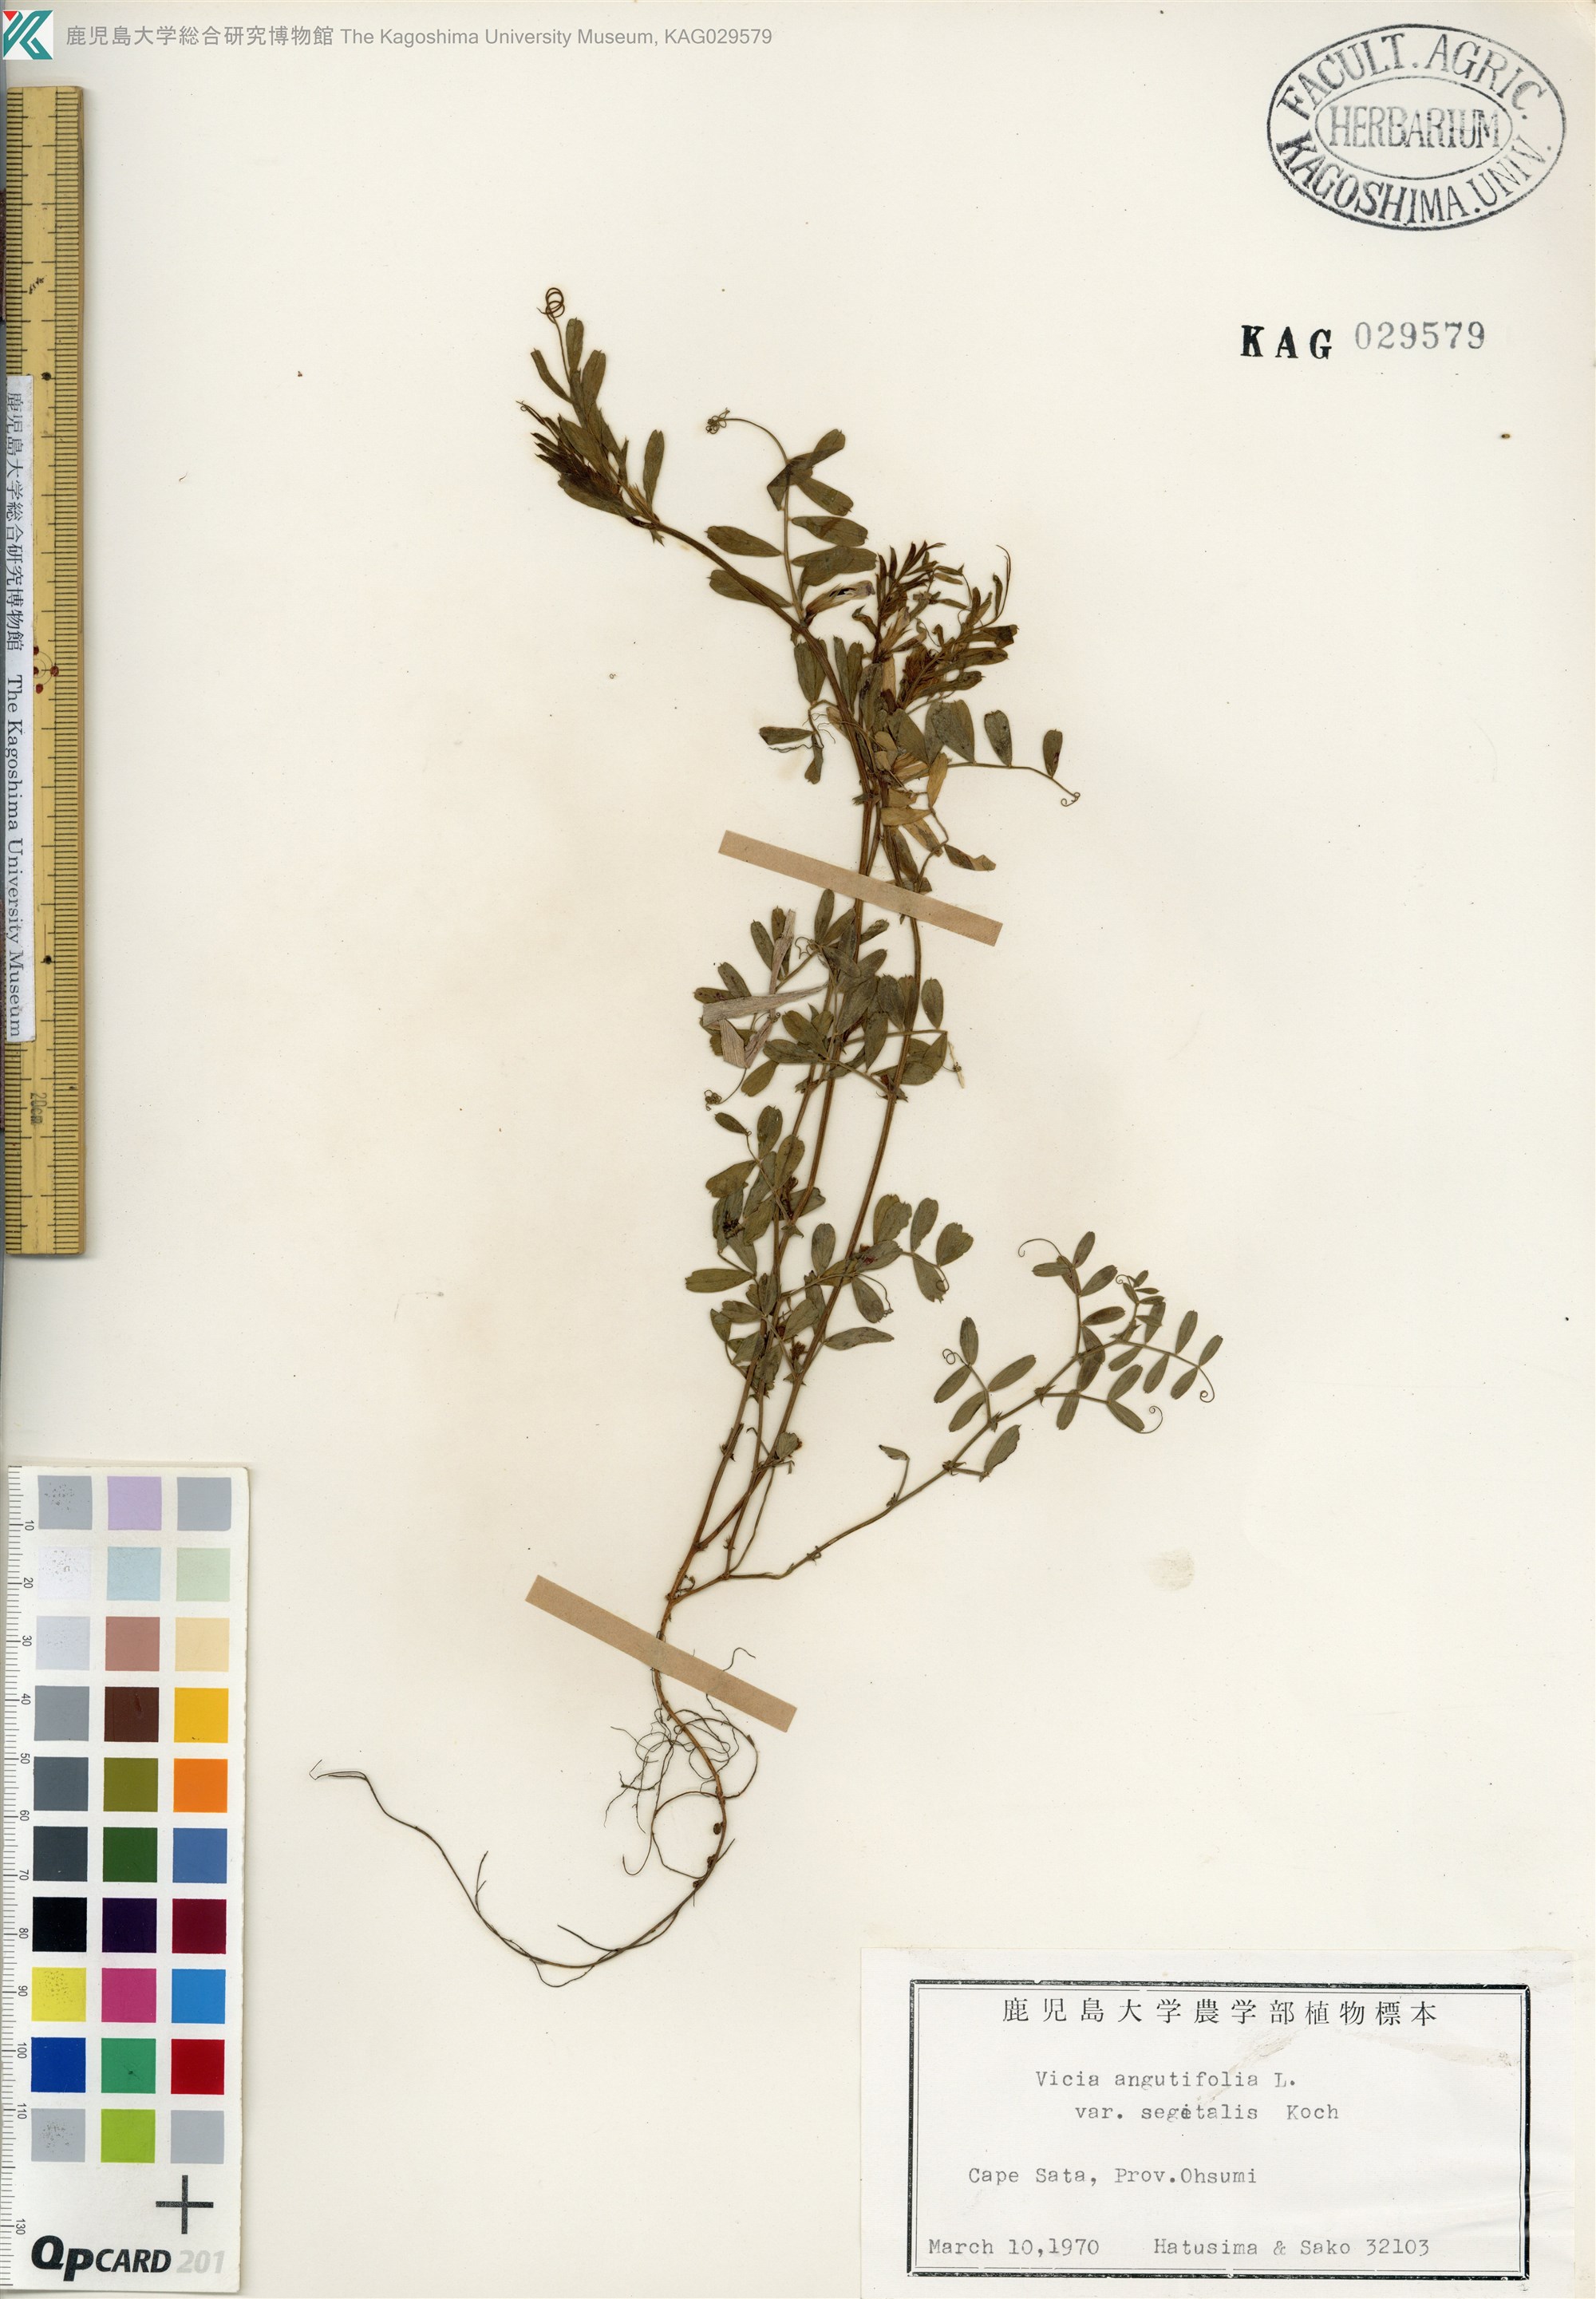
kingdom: Plantae
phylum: Tracheophyta
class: Magnoliopsida
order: Fabales
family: Fabaceae
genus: Vicia
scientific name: Vicia sativa
